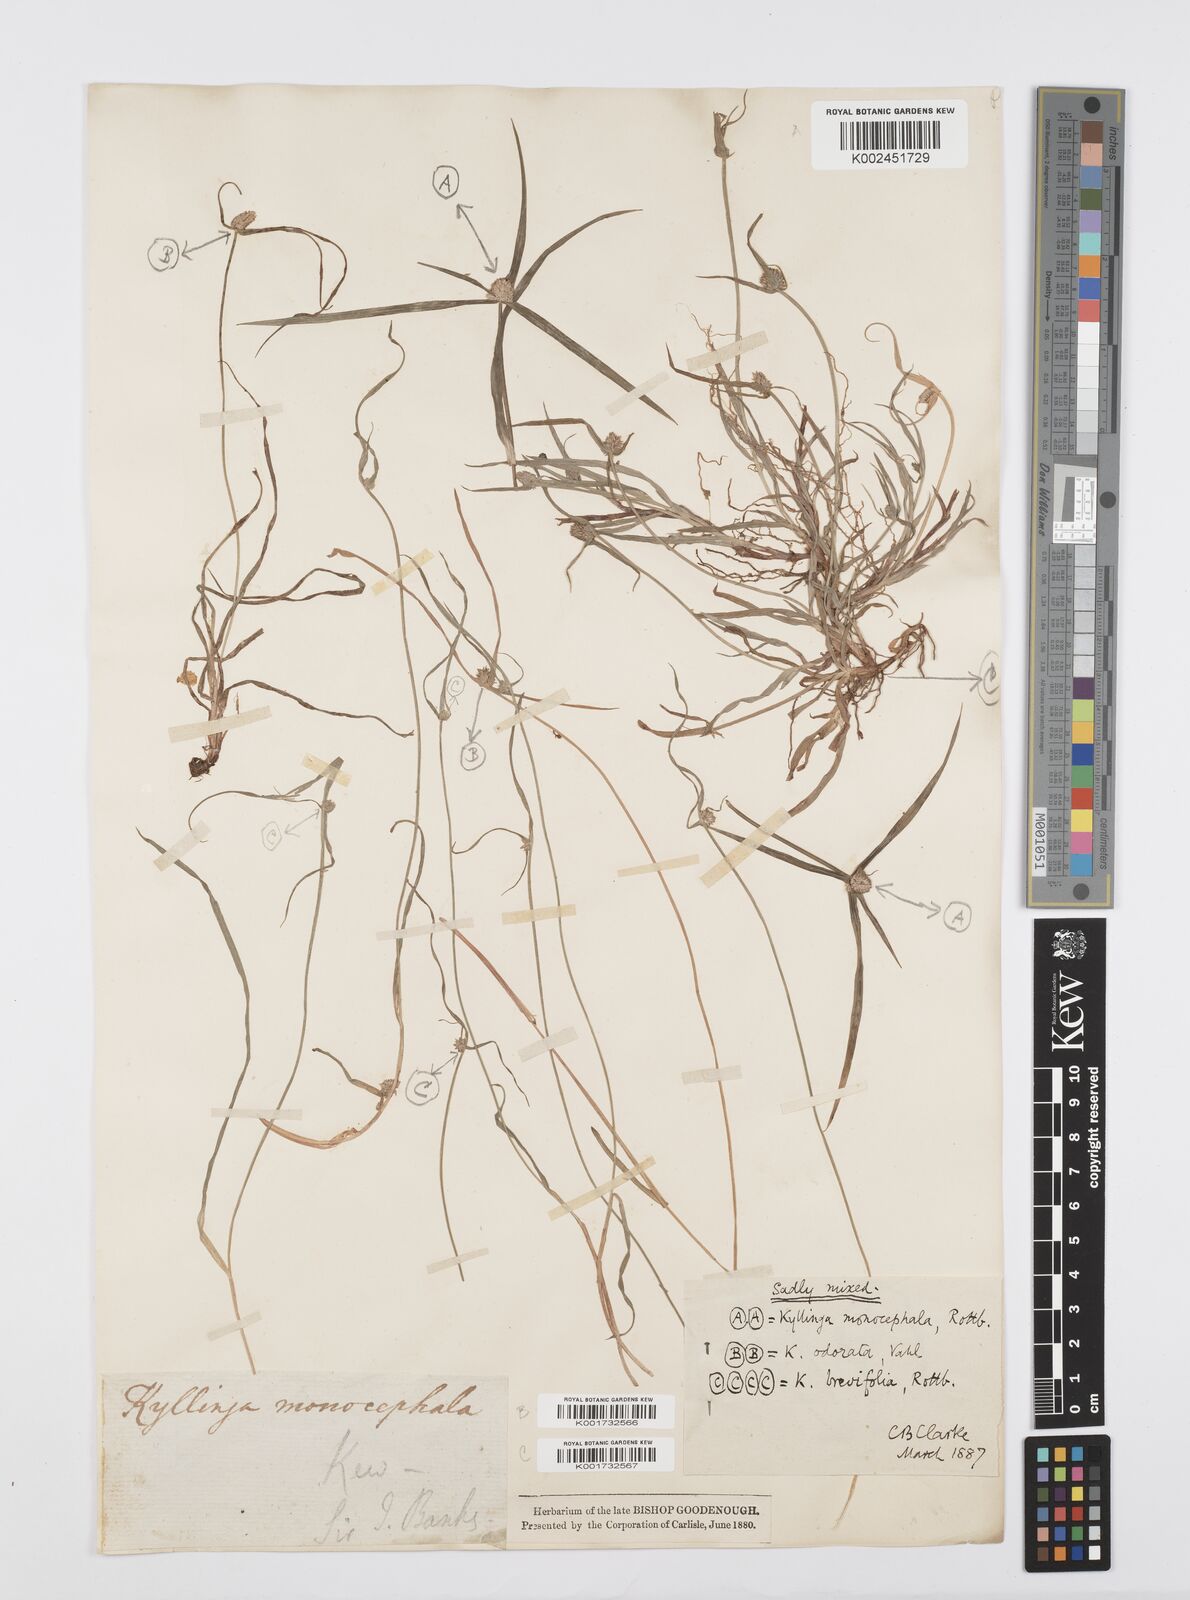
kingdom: Plantae
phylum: Tracheophyta
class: Liliopsida
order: Poales
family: Cyperaceae
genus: Cyperus
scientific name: Cyperus brevifolius
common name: Globe kyllinga
